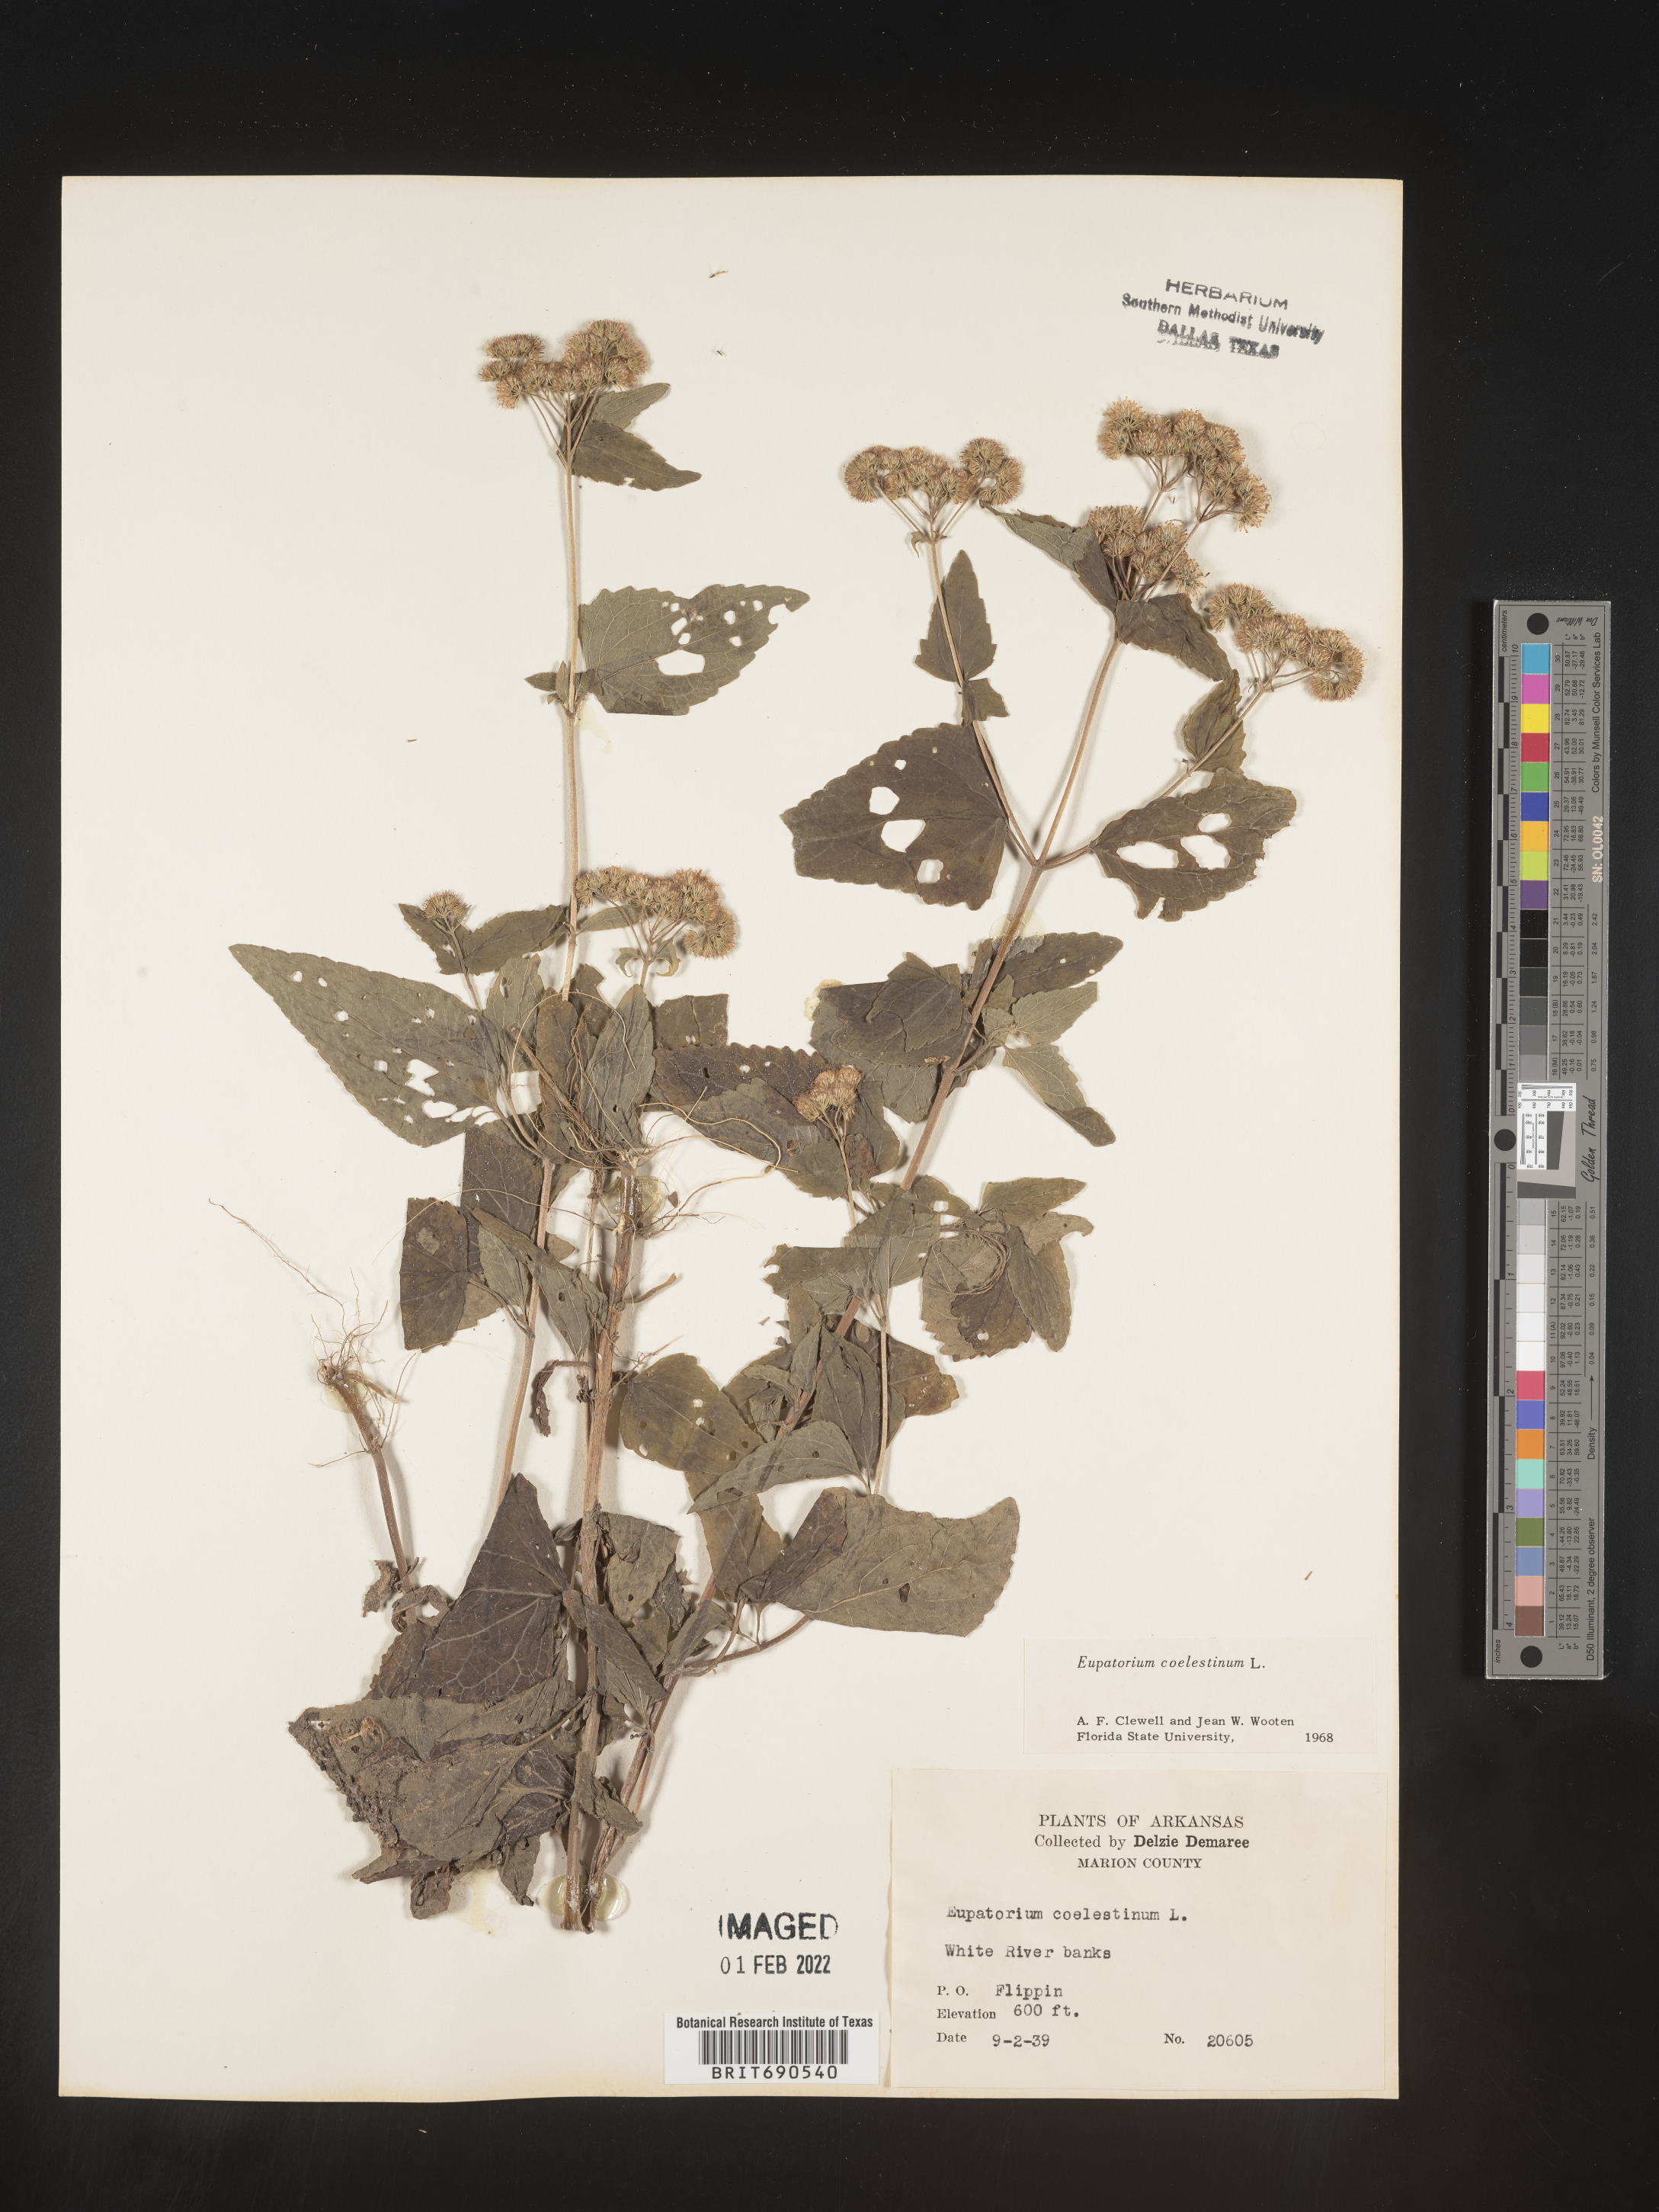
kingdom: Plantae
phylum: Tracheophyta
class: Magnoliopsida
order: Asterales
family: Asteraceae
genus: Conoclinium
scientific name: Conoclinium coelestinum
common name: Blue mistflower
